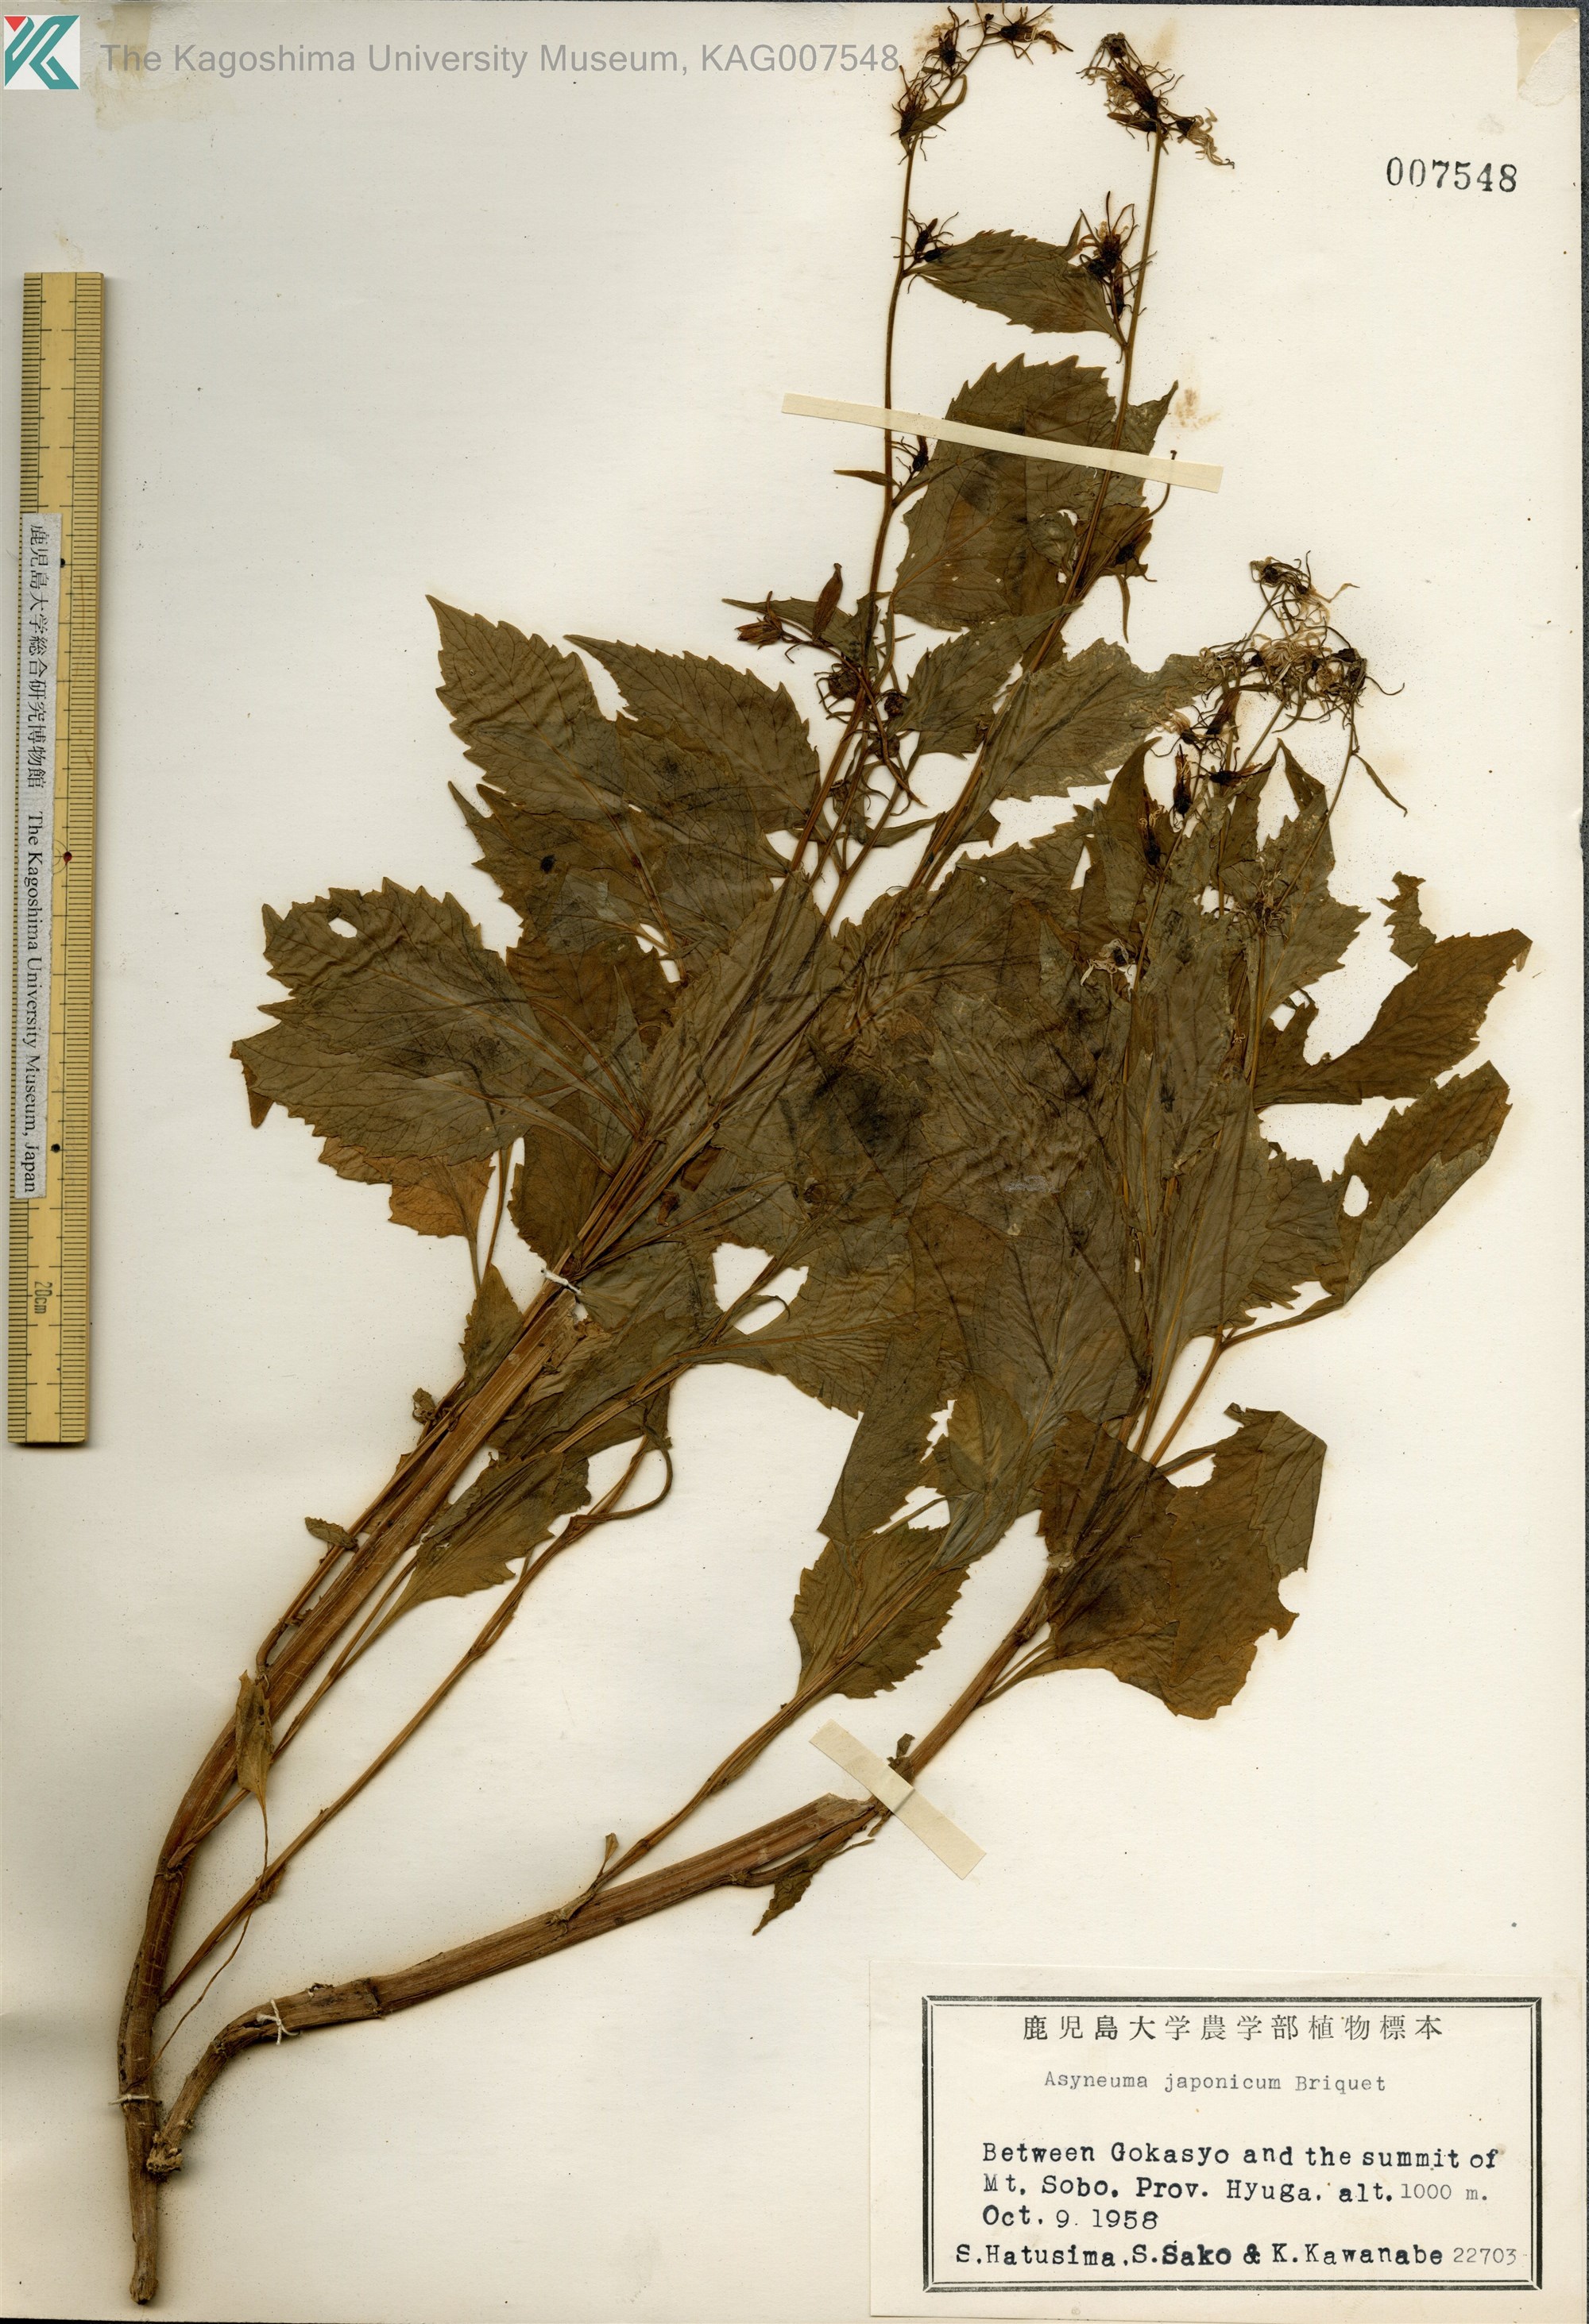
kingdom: Plantae
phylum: Tracheophyta
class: Magnoliopsida
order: Asterales
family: Campanulaceae
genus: Asyneuma
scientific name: Asyneuma japonicum
